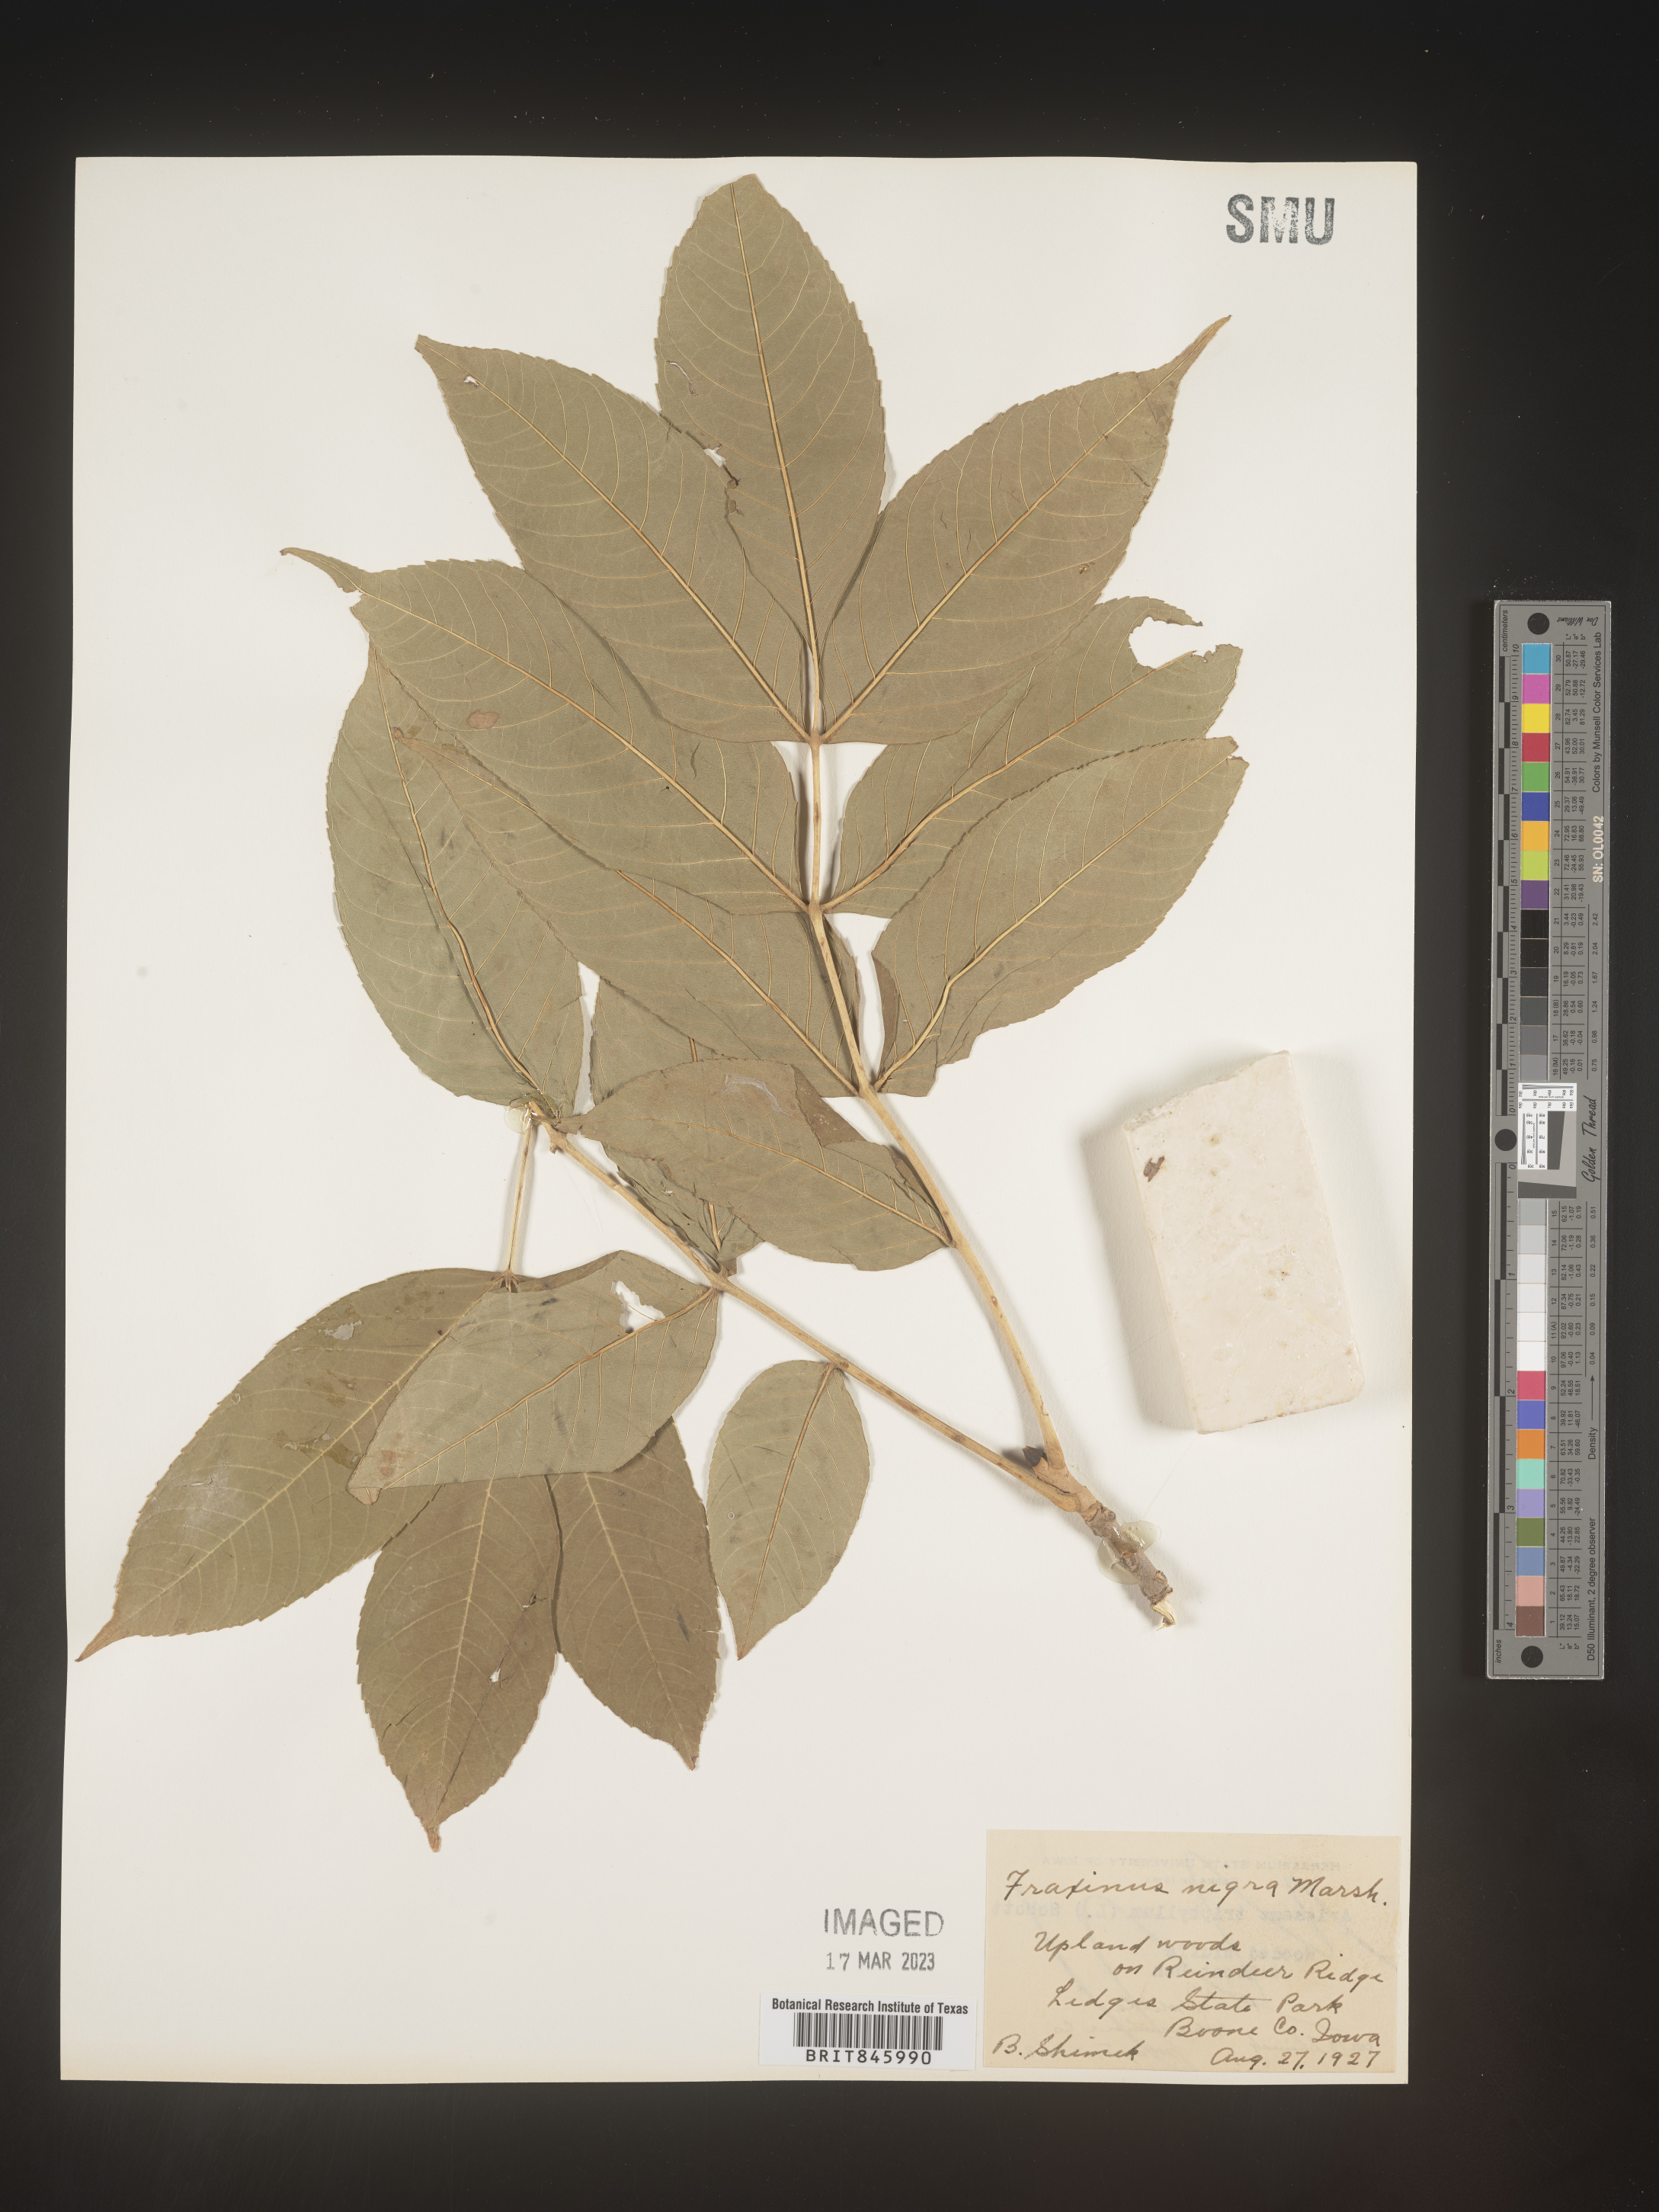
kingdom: Plantae
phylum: Tracheophyta
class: Magnoliopsida
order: Lamiales
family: Oleaceae
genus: Fraxinus
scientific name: Fraxinus nigra
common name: Black ash
